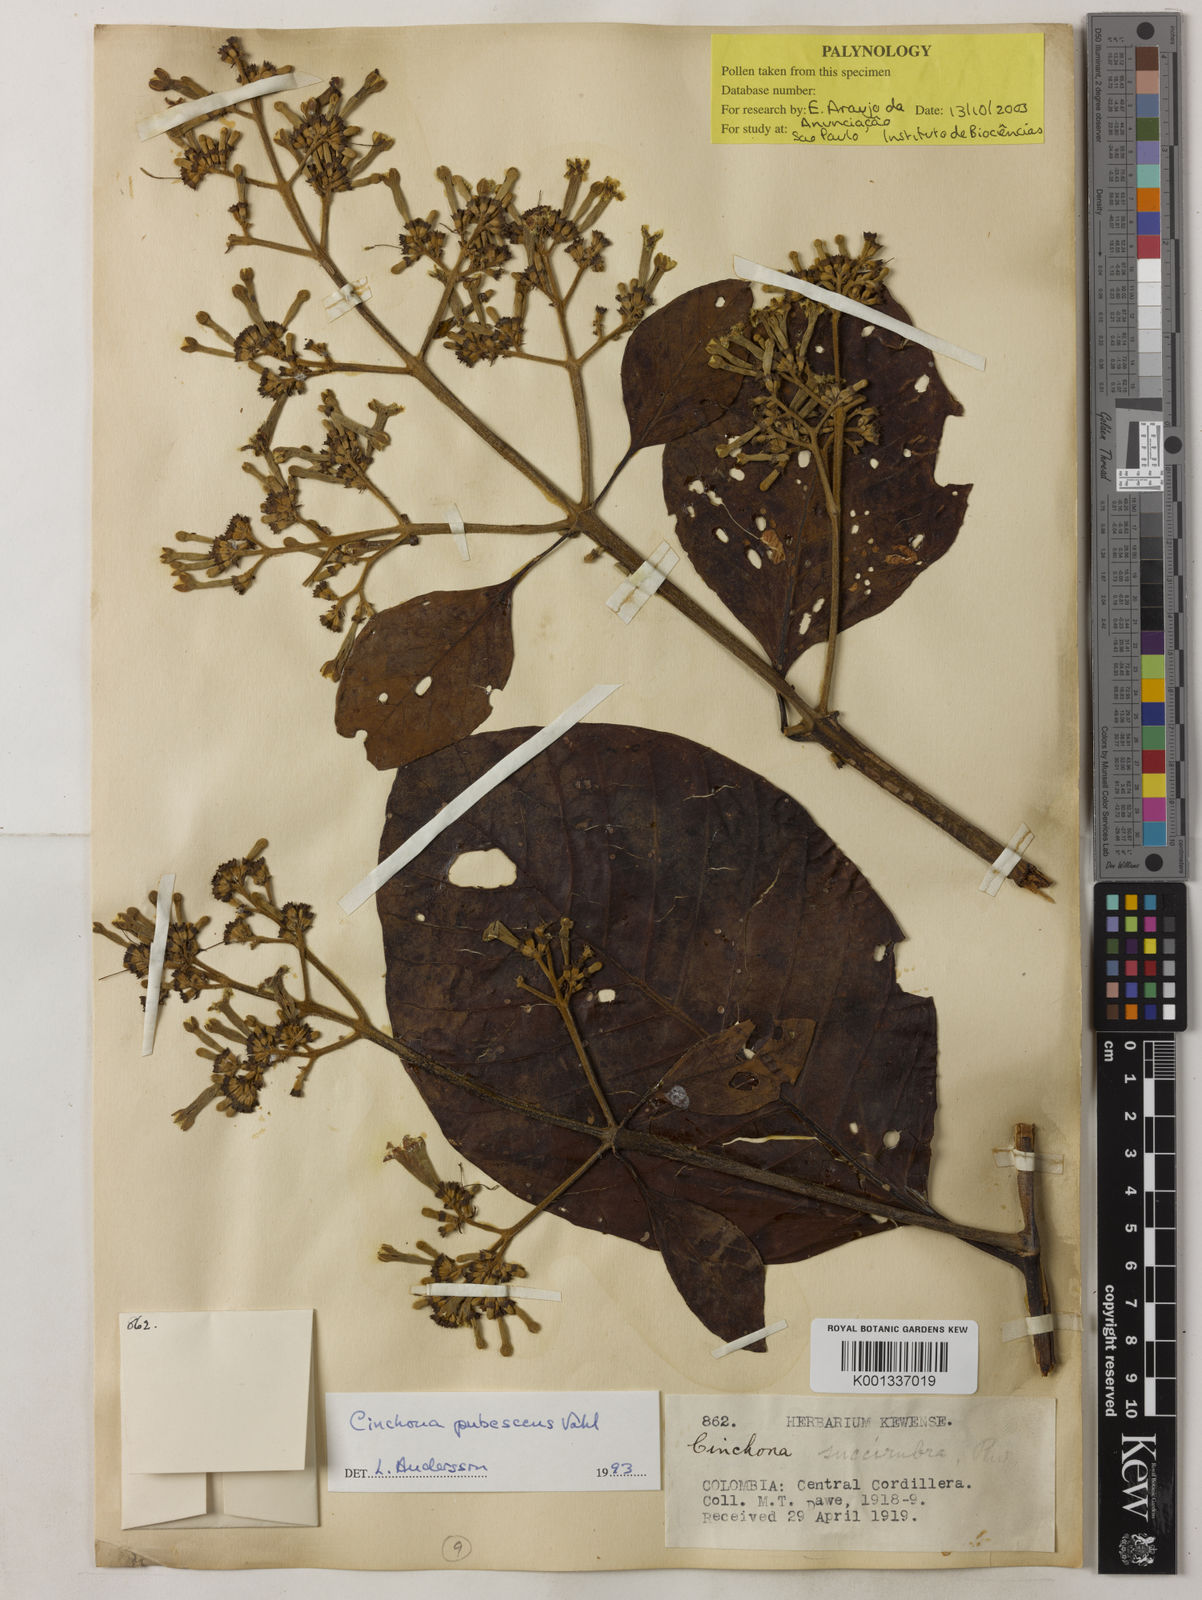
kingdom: Plantae
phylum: Tracheophyta
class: Magnoliopsida
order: Gentianales
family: Rubiaceae
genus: Cinchona
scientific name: Cinchona pubescens
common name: Quinine
